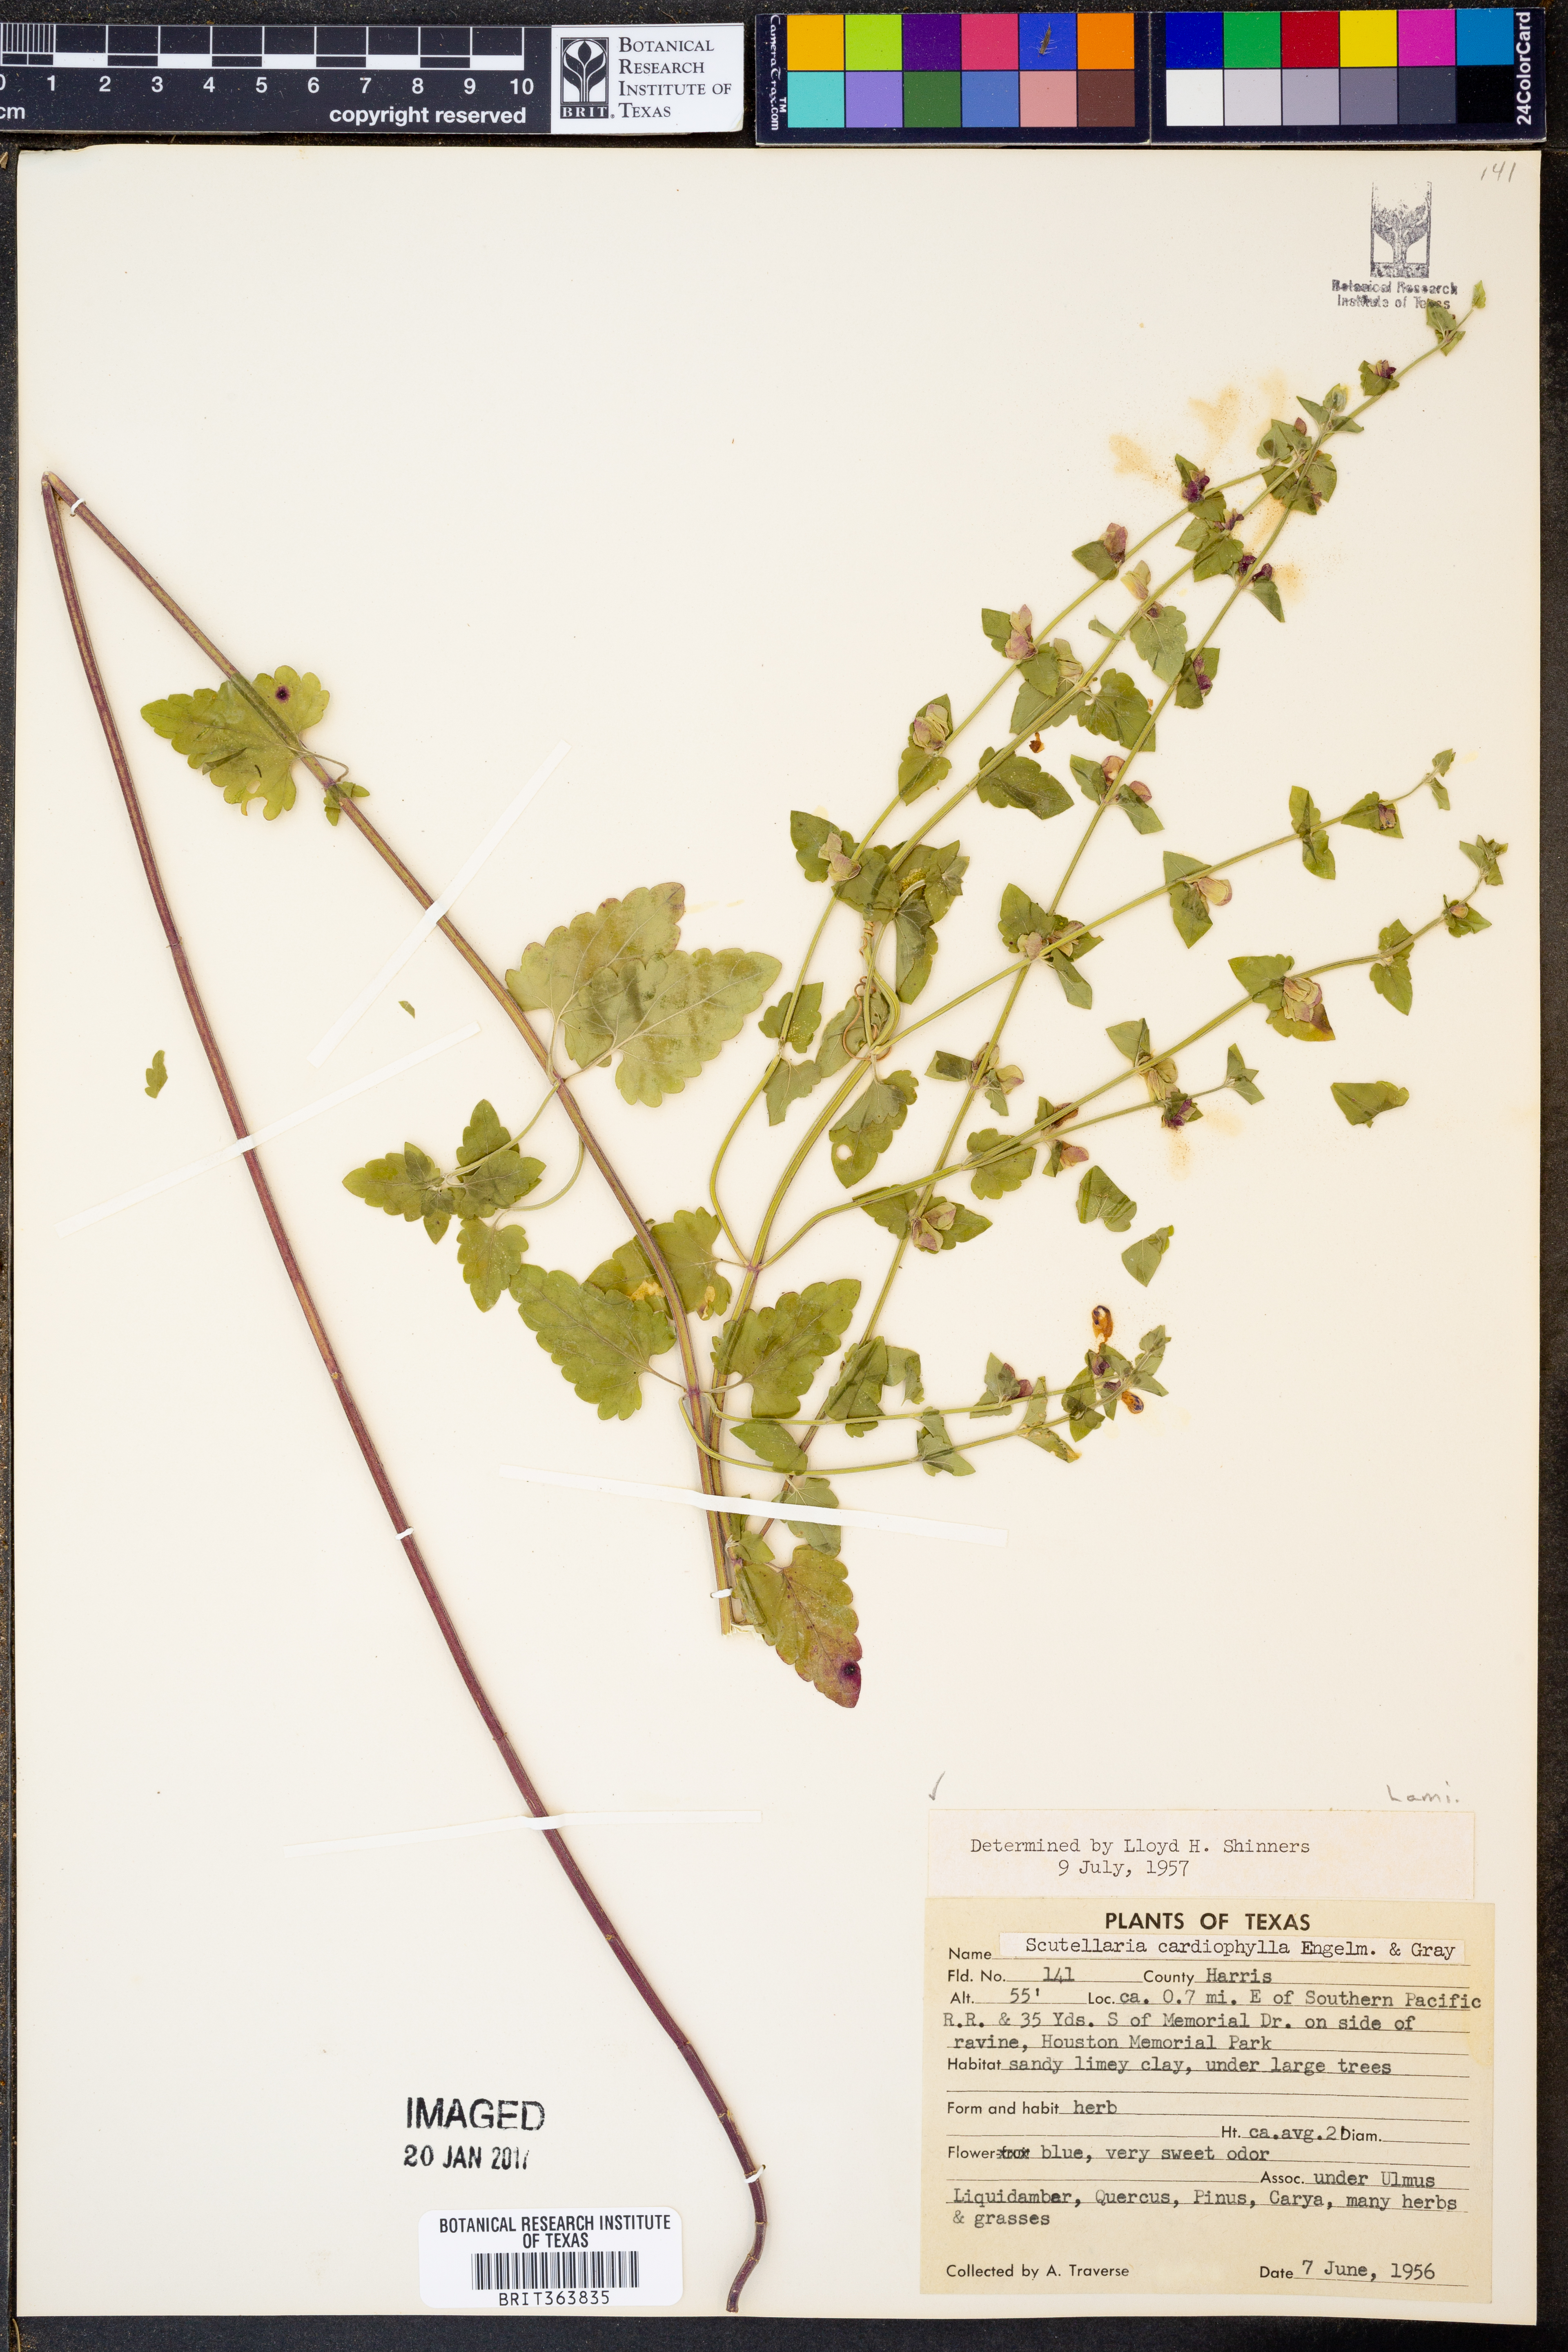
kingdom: Plantae
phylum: Tracheophyta
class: Magnoliopsida
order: Lamiales
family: Lamiaceae
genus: Scutellaria
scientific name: Scutellaria cardiophylla
